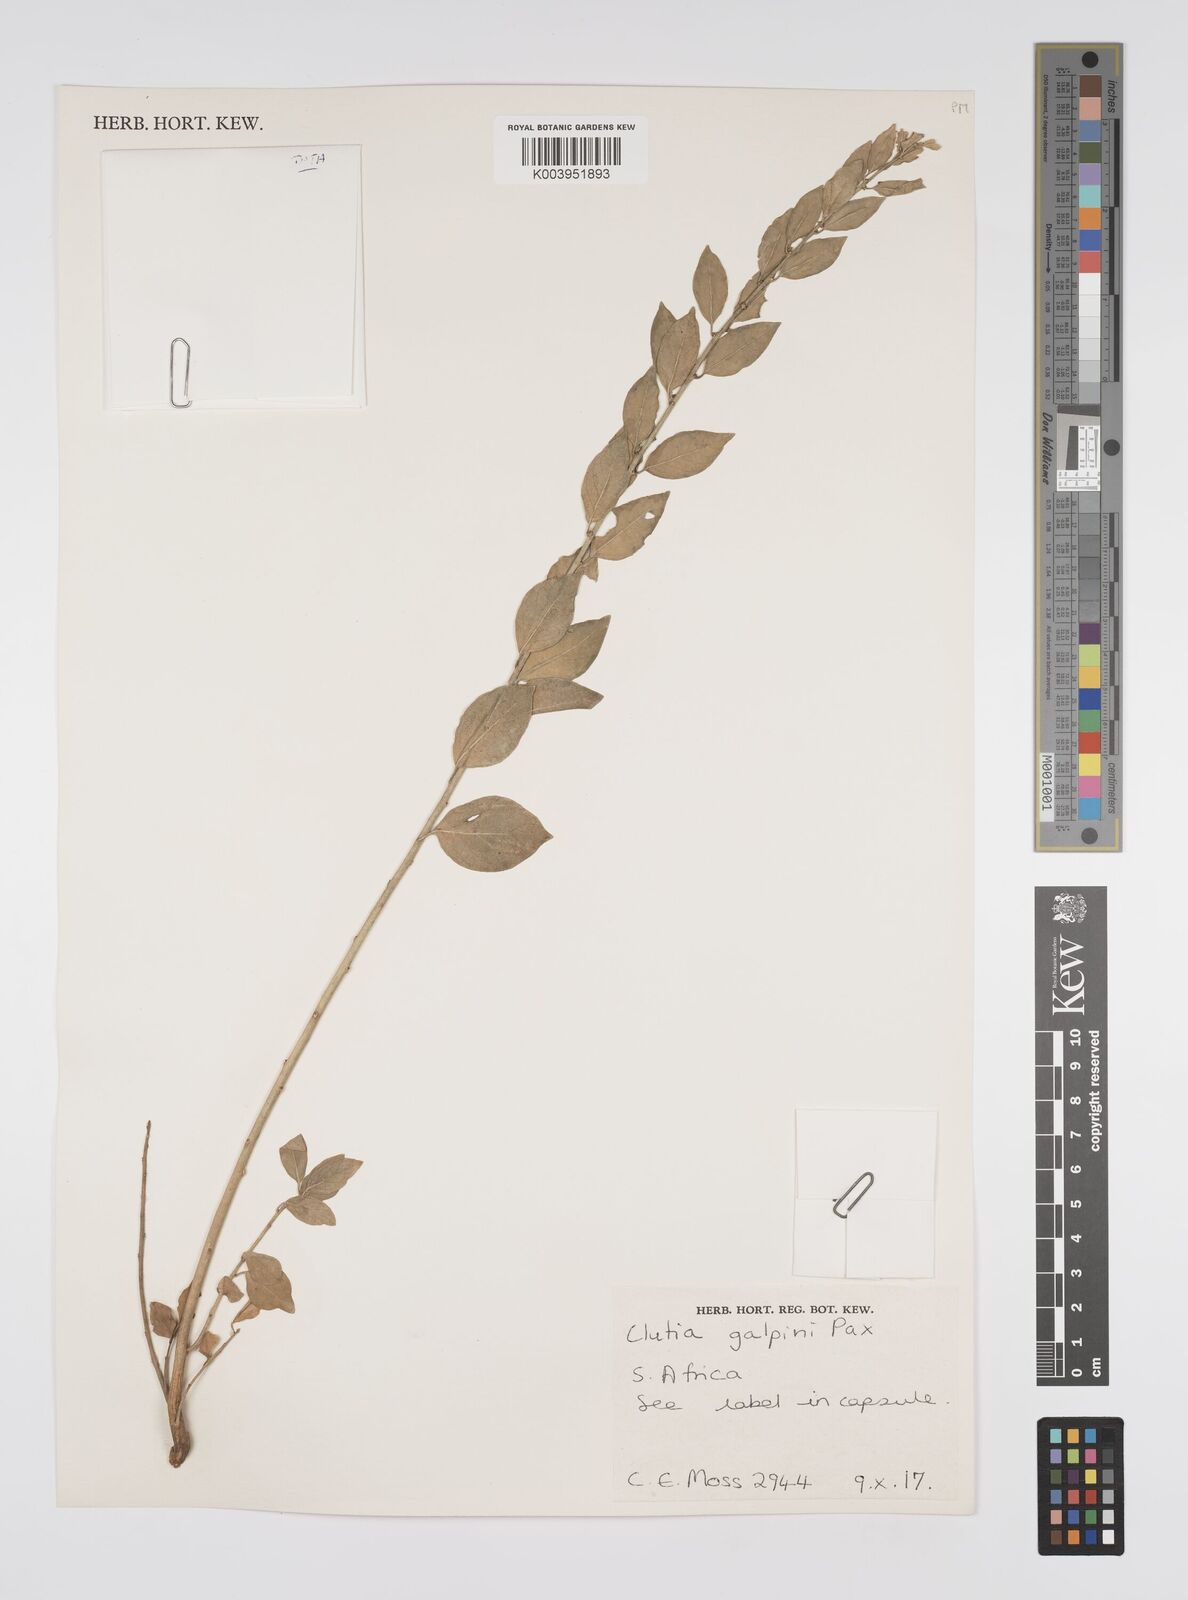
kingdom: Plantae
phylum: Tracheophyta
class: Magnoliopsida
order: Malpighiales
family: Peraceae
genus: Clutia
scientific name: Clutia galpinii
